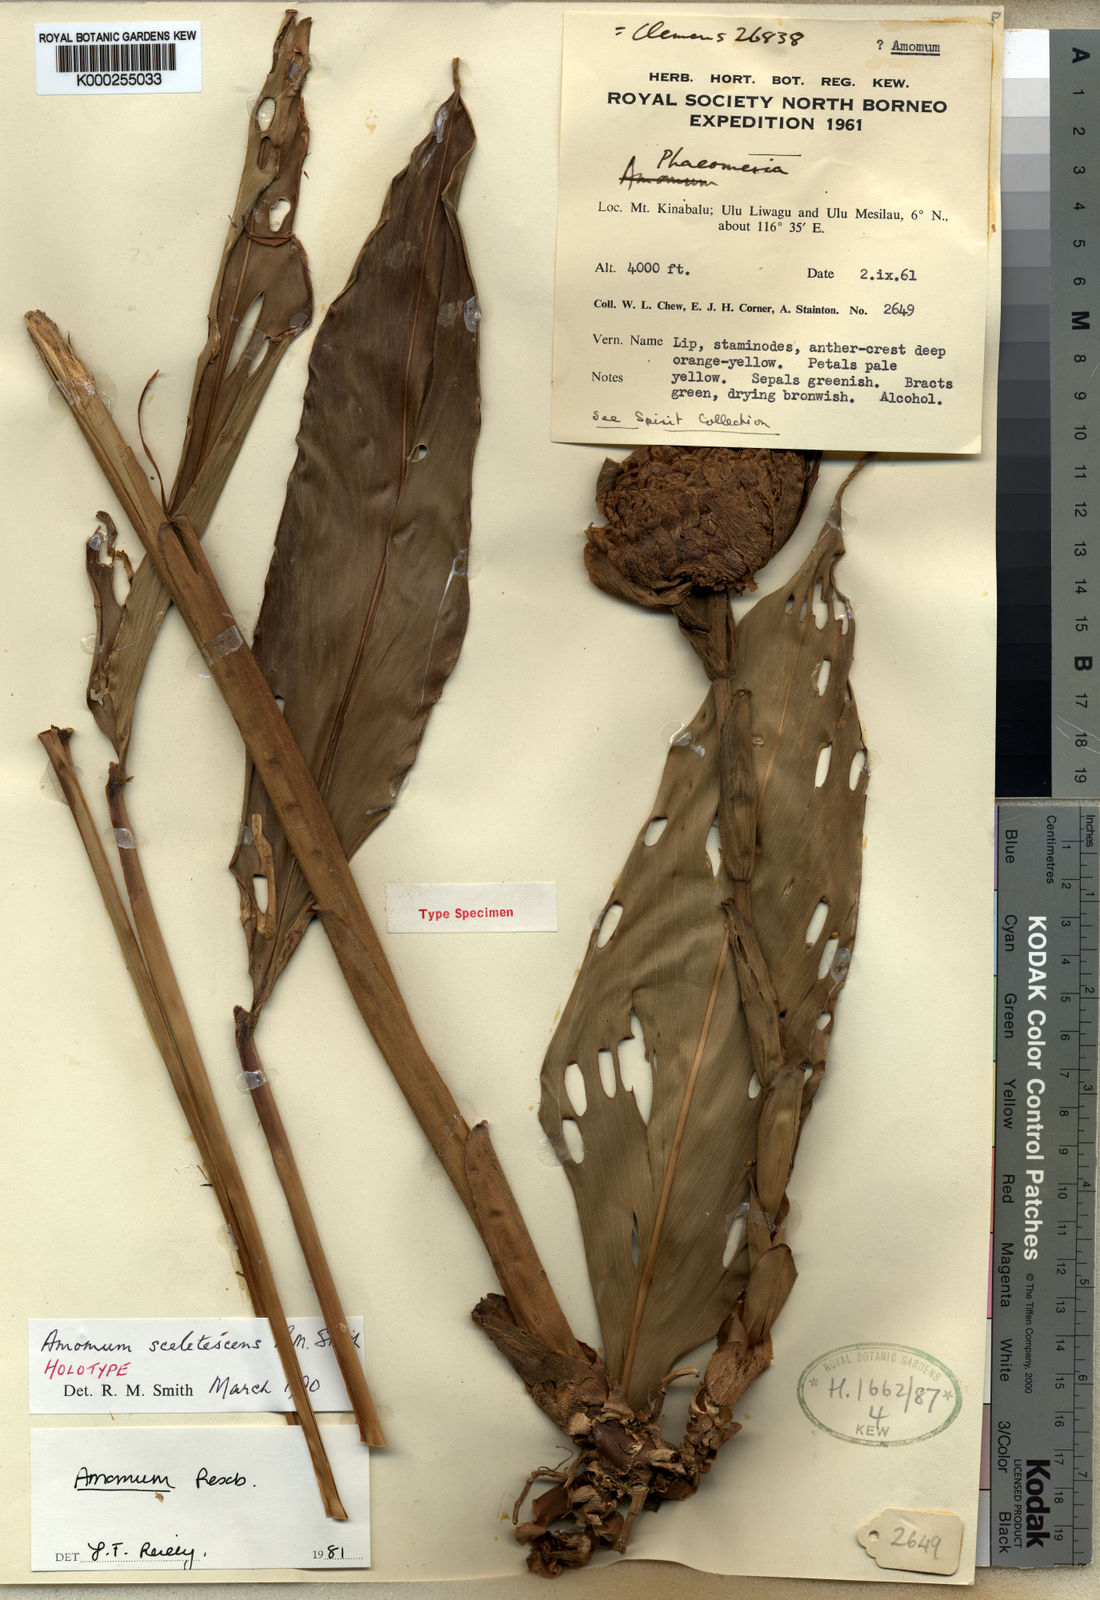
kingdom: Plantae
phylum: Tracheophyta
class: Liliopsida
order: Zingiberales
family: Zingiberaceae
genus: Meistera
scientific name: Meistera sceletescens
